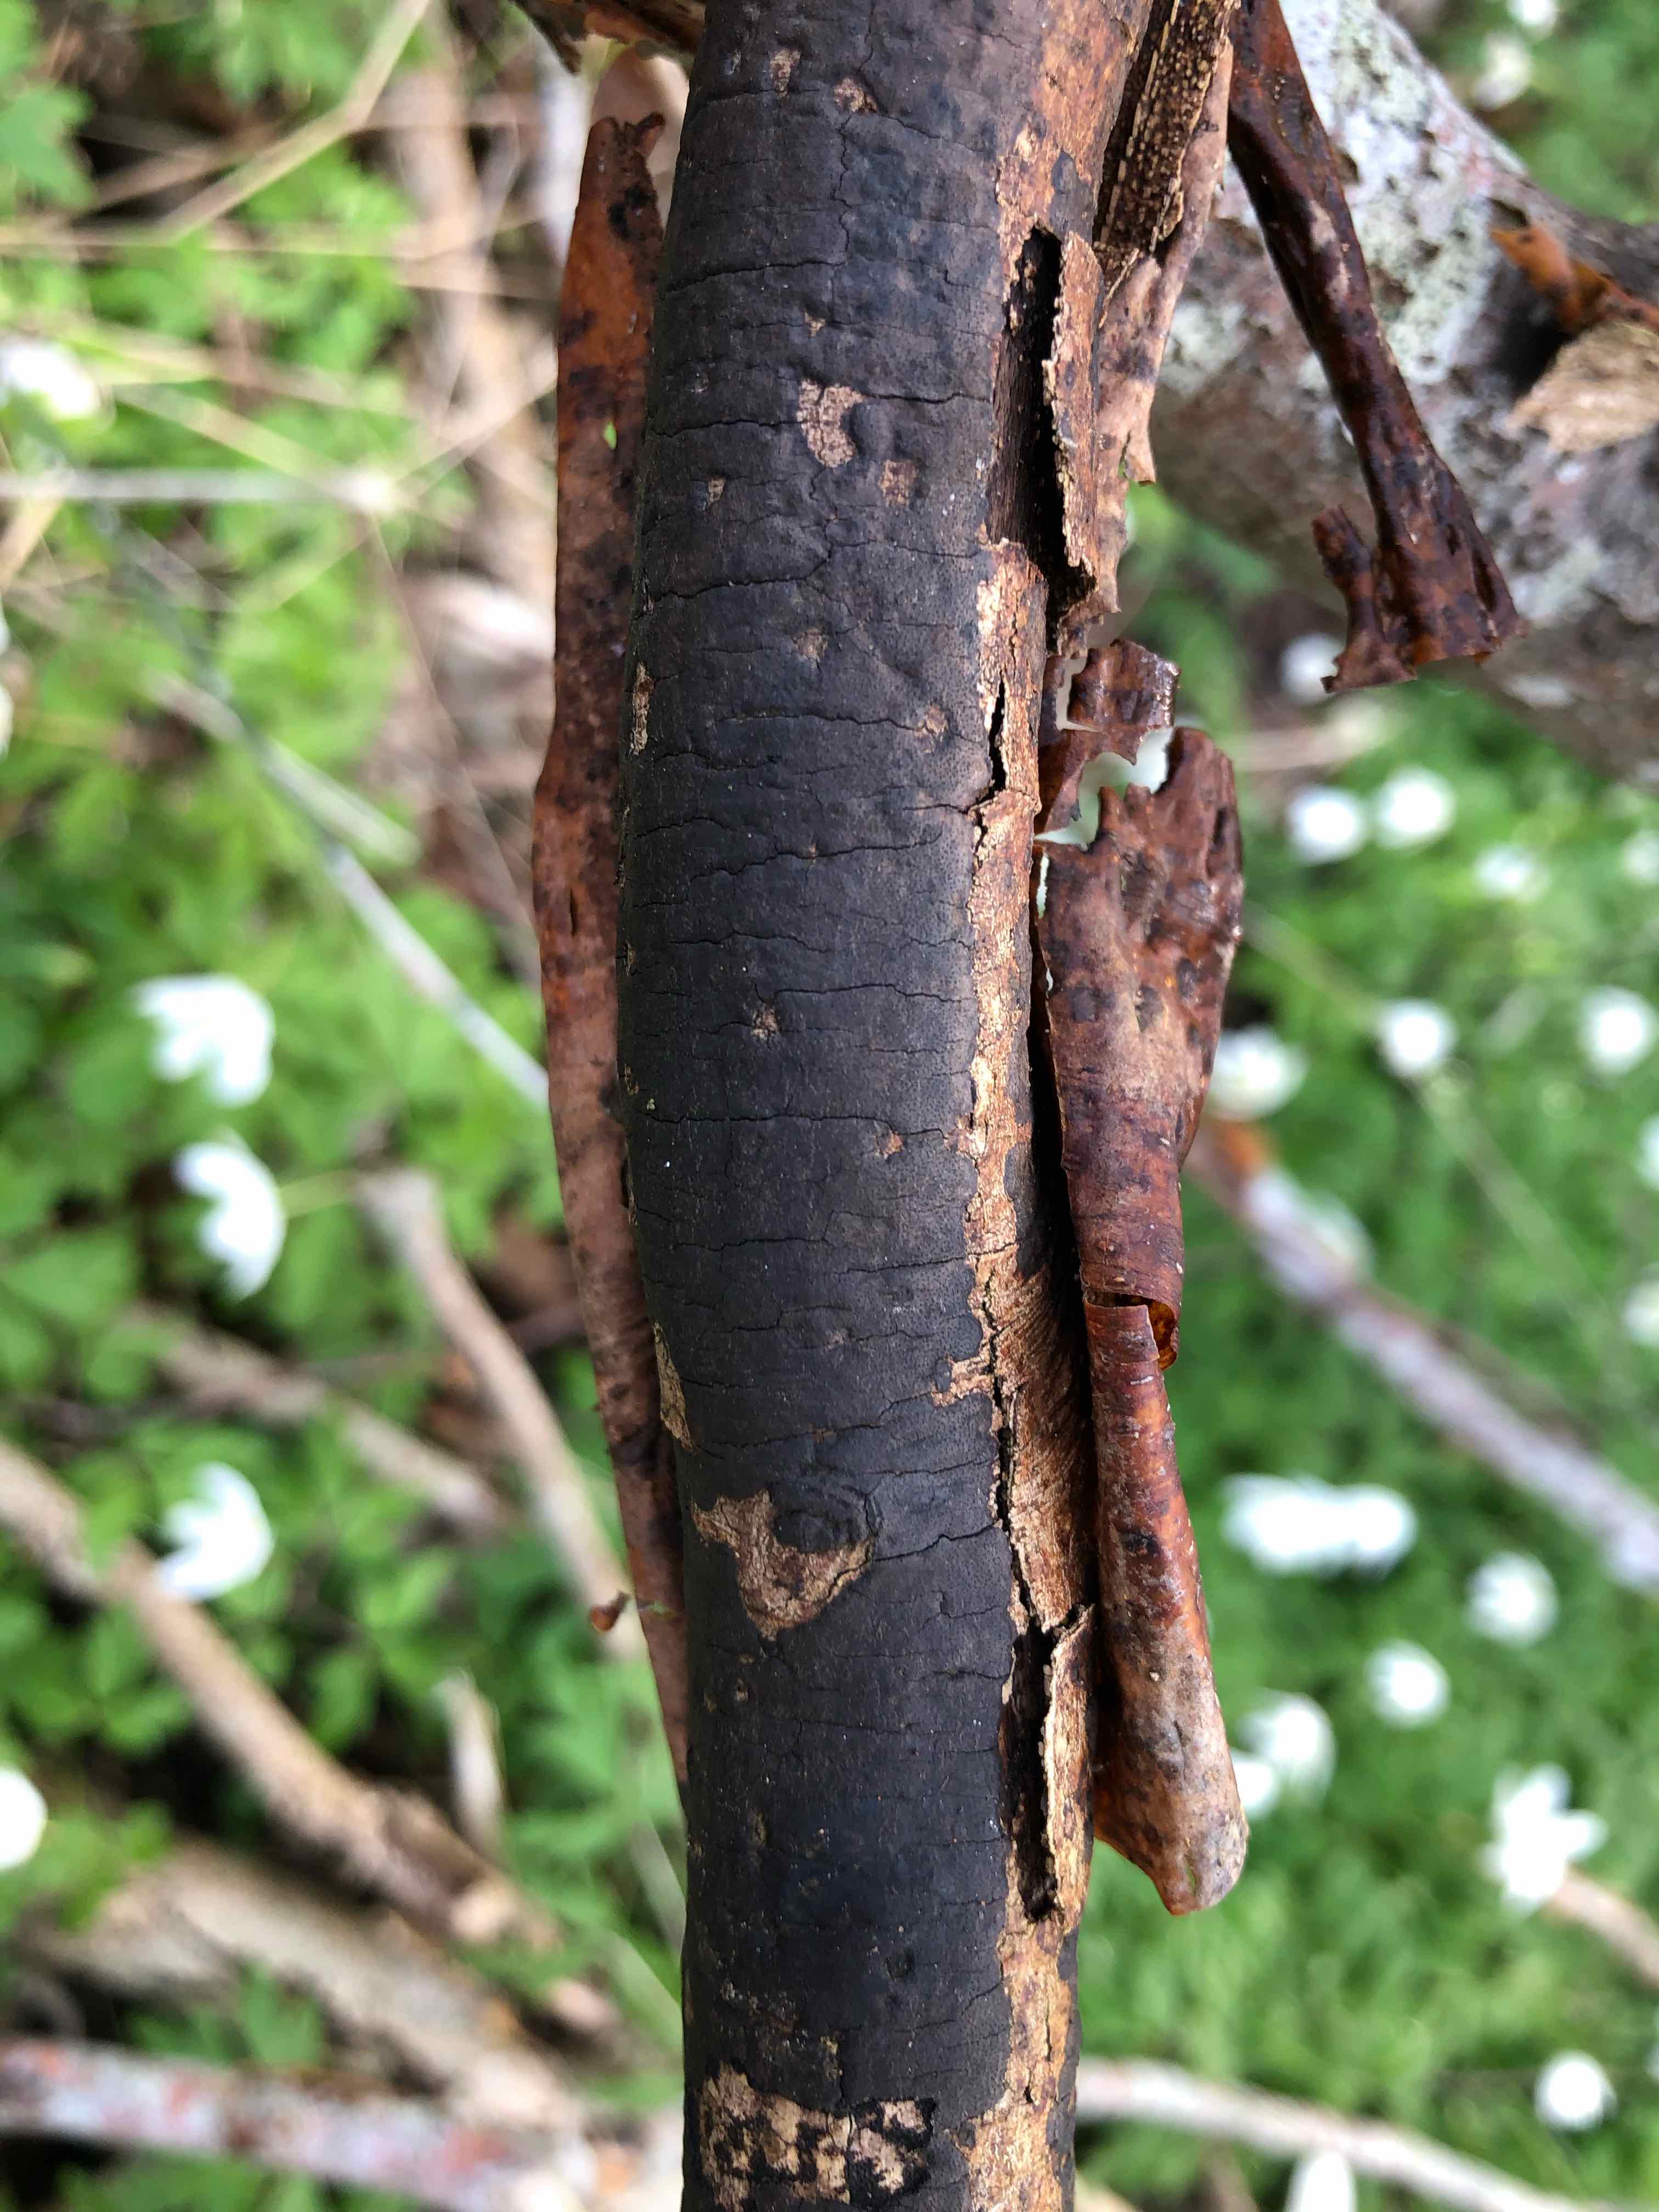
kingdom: Fungi
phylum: Ascomycota
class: Sordariomycetes
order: Xylariales
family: Diatrypaceae
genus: Diatrype
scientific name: Diatrype decorticata
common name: barksprænger-kulskorpe
